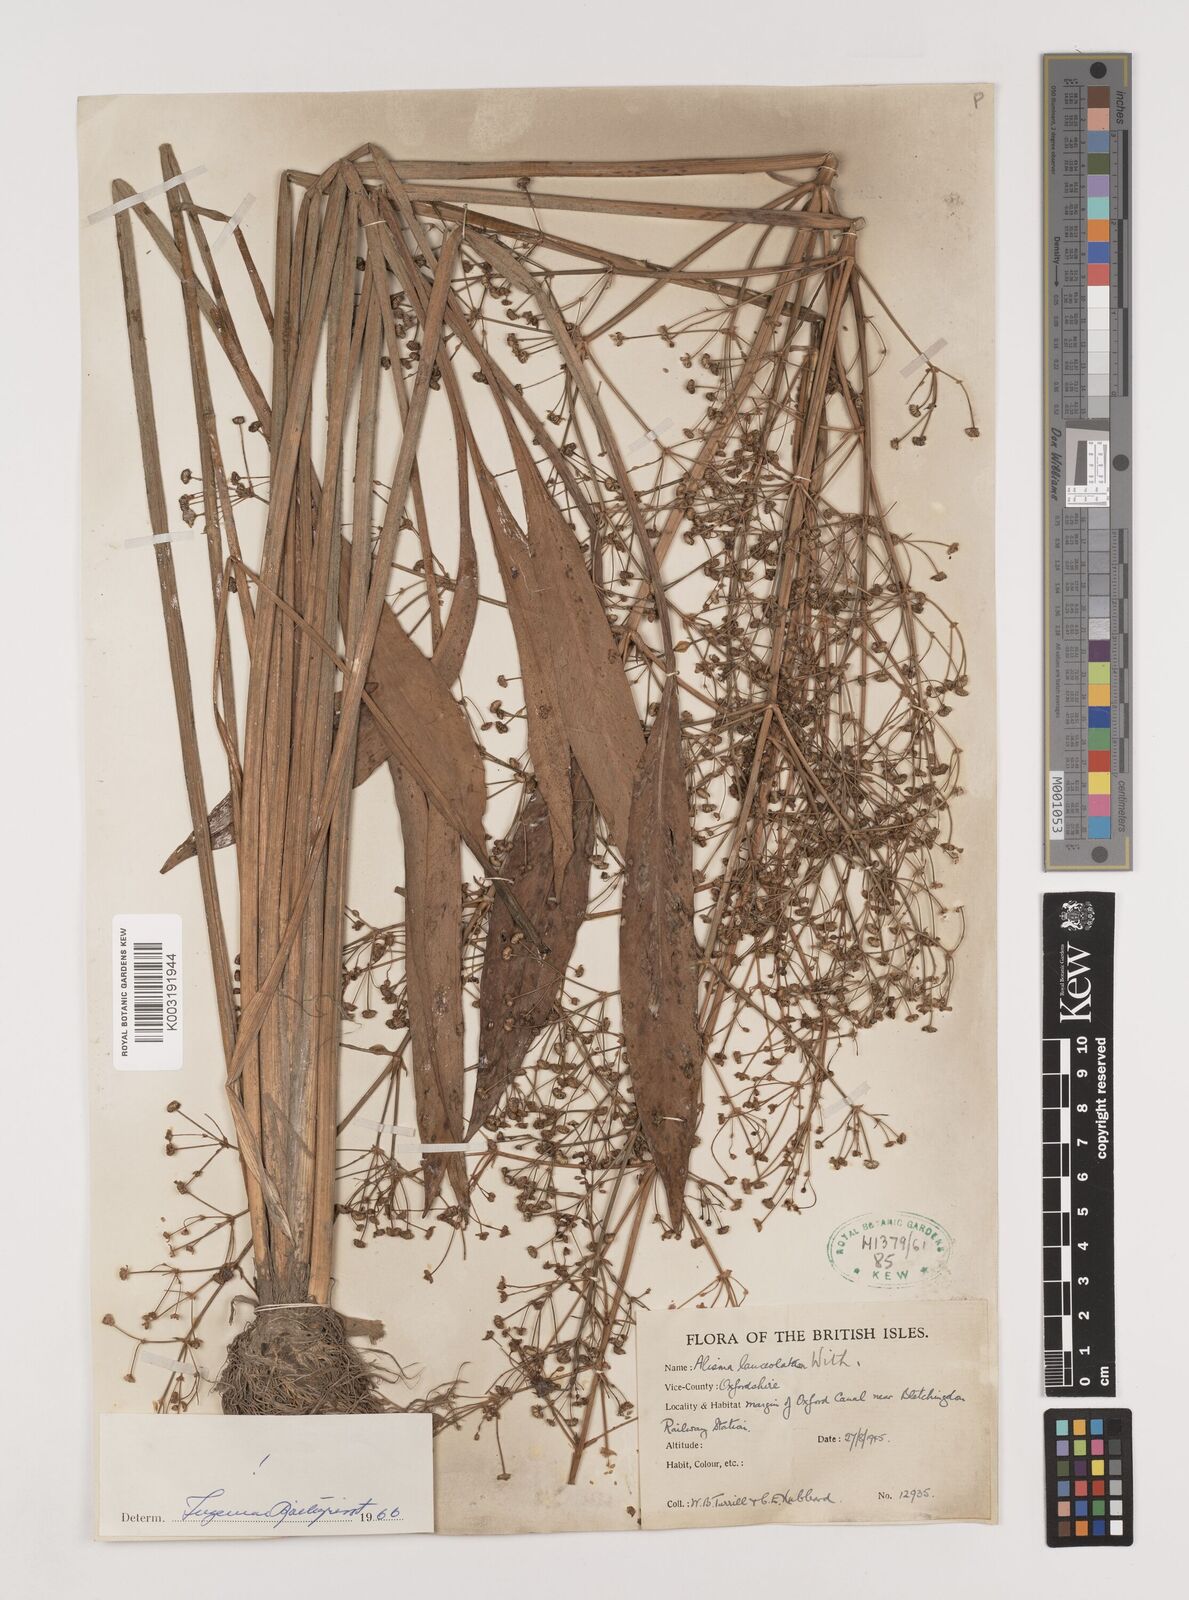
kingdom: Plantae
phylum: Tracheophyta
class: Liliopsida
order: Alismatales
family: Alismataceae
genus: Alisma
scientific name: Alisma lanceolatum
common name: Narrow-leaved water-plantain
